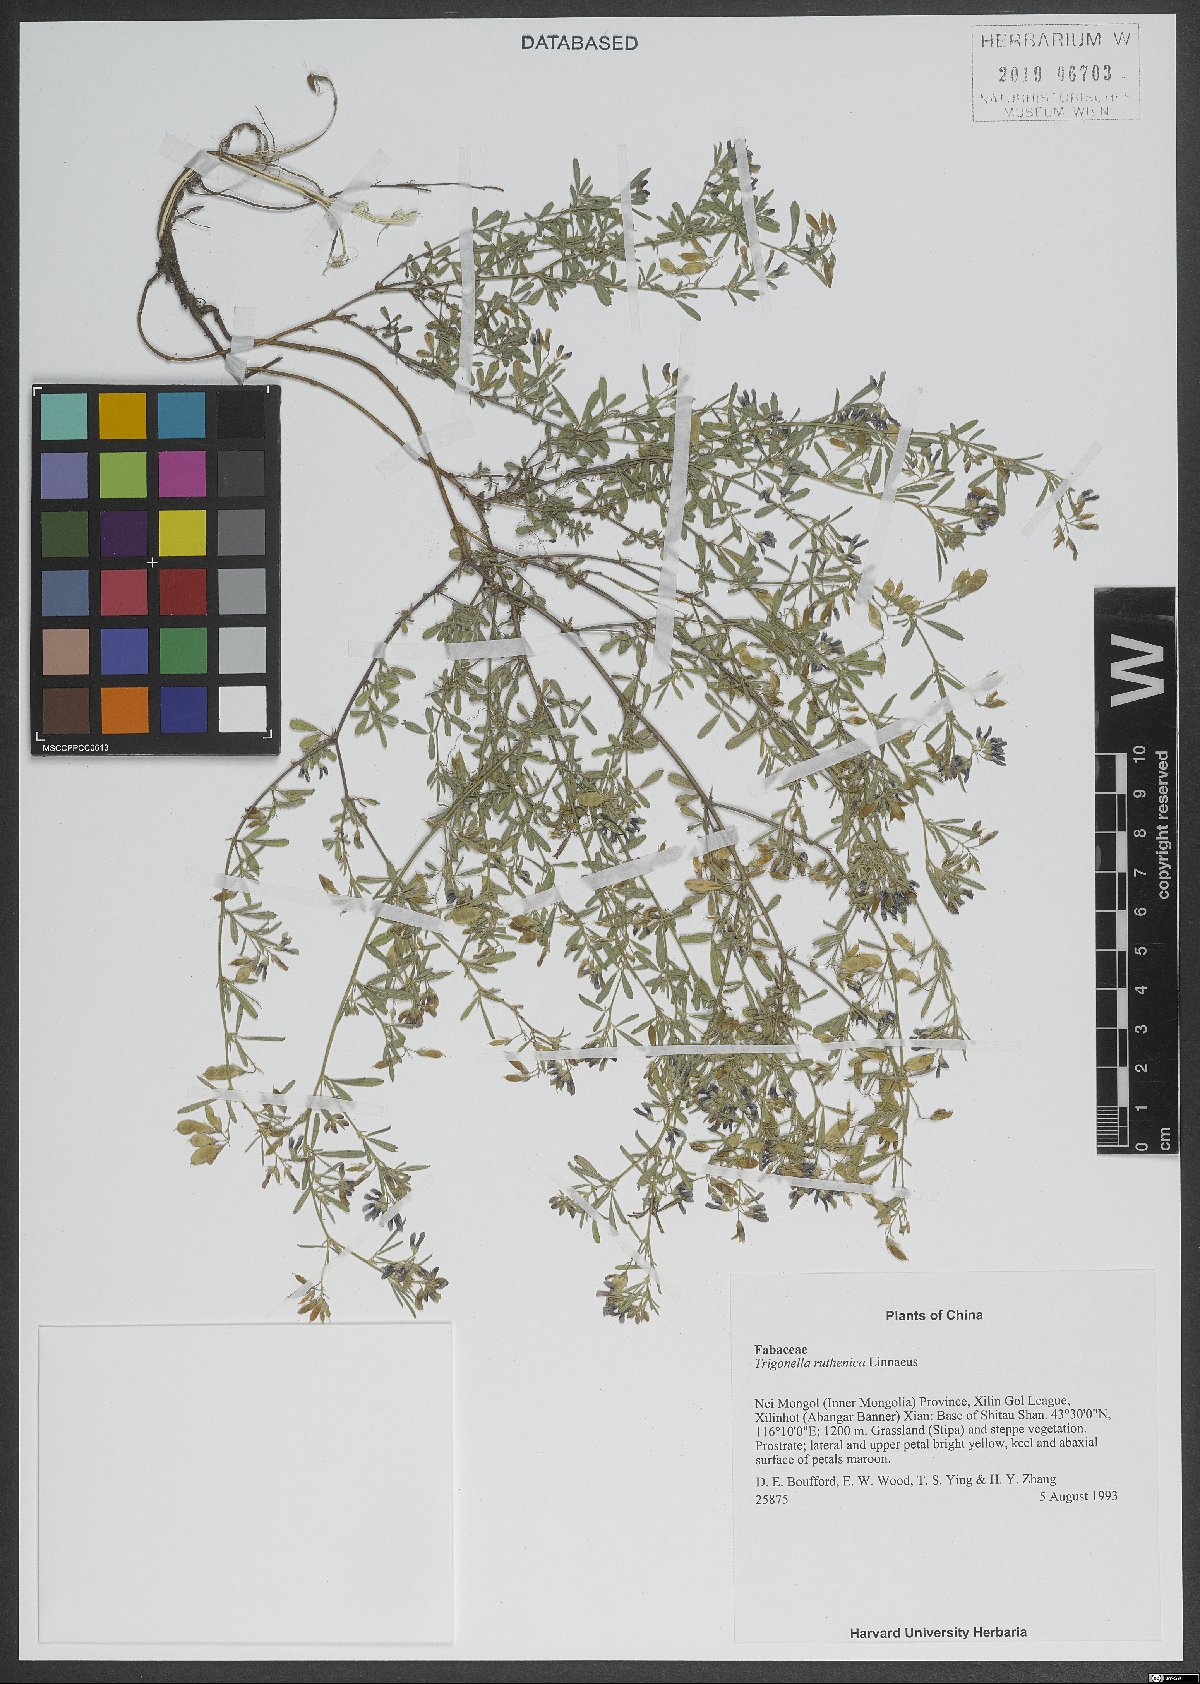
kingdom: Plantae
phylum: Tracheophyta
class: Magnoliopsida
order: Fabales
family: Fabaceae
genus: Medicago
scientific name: Medicago ruthenica
